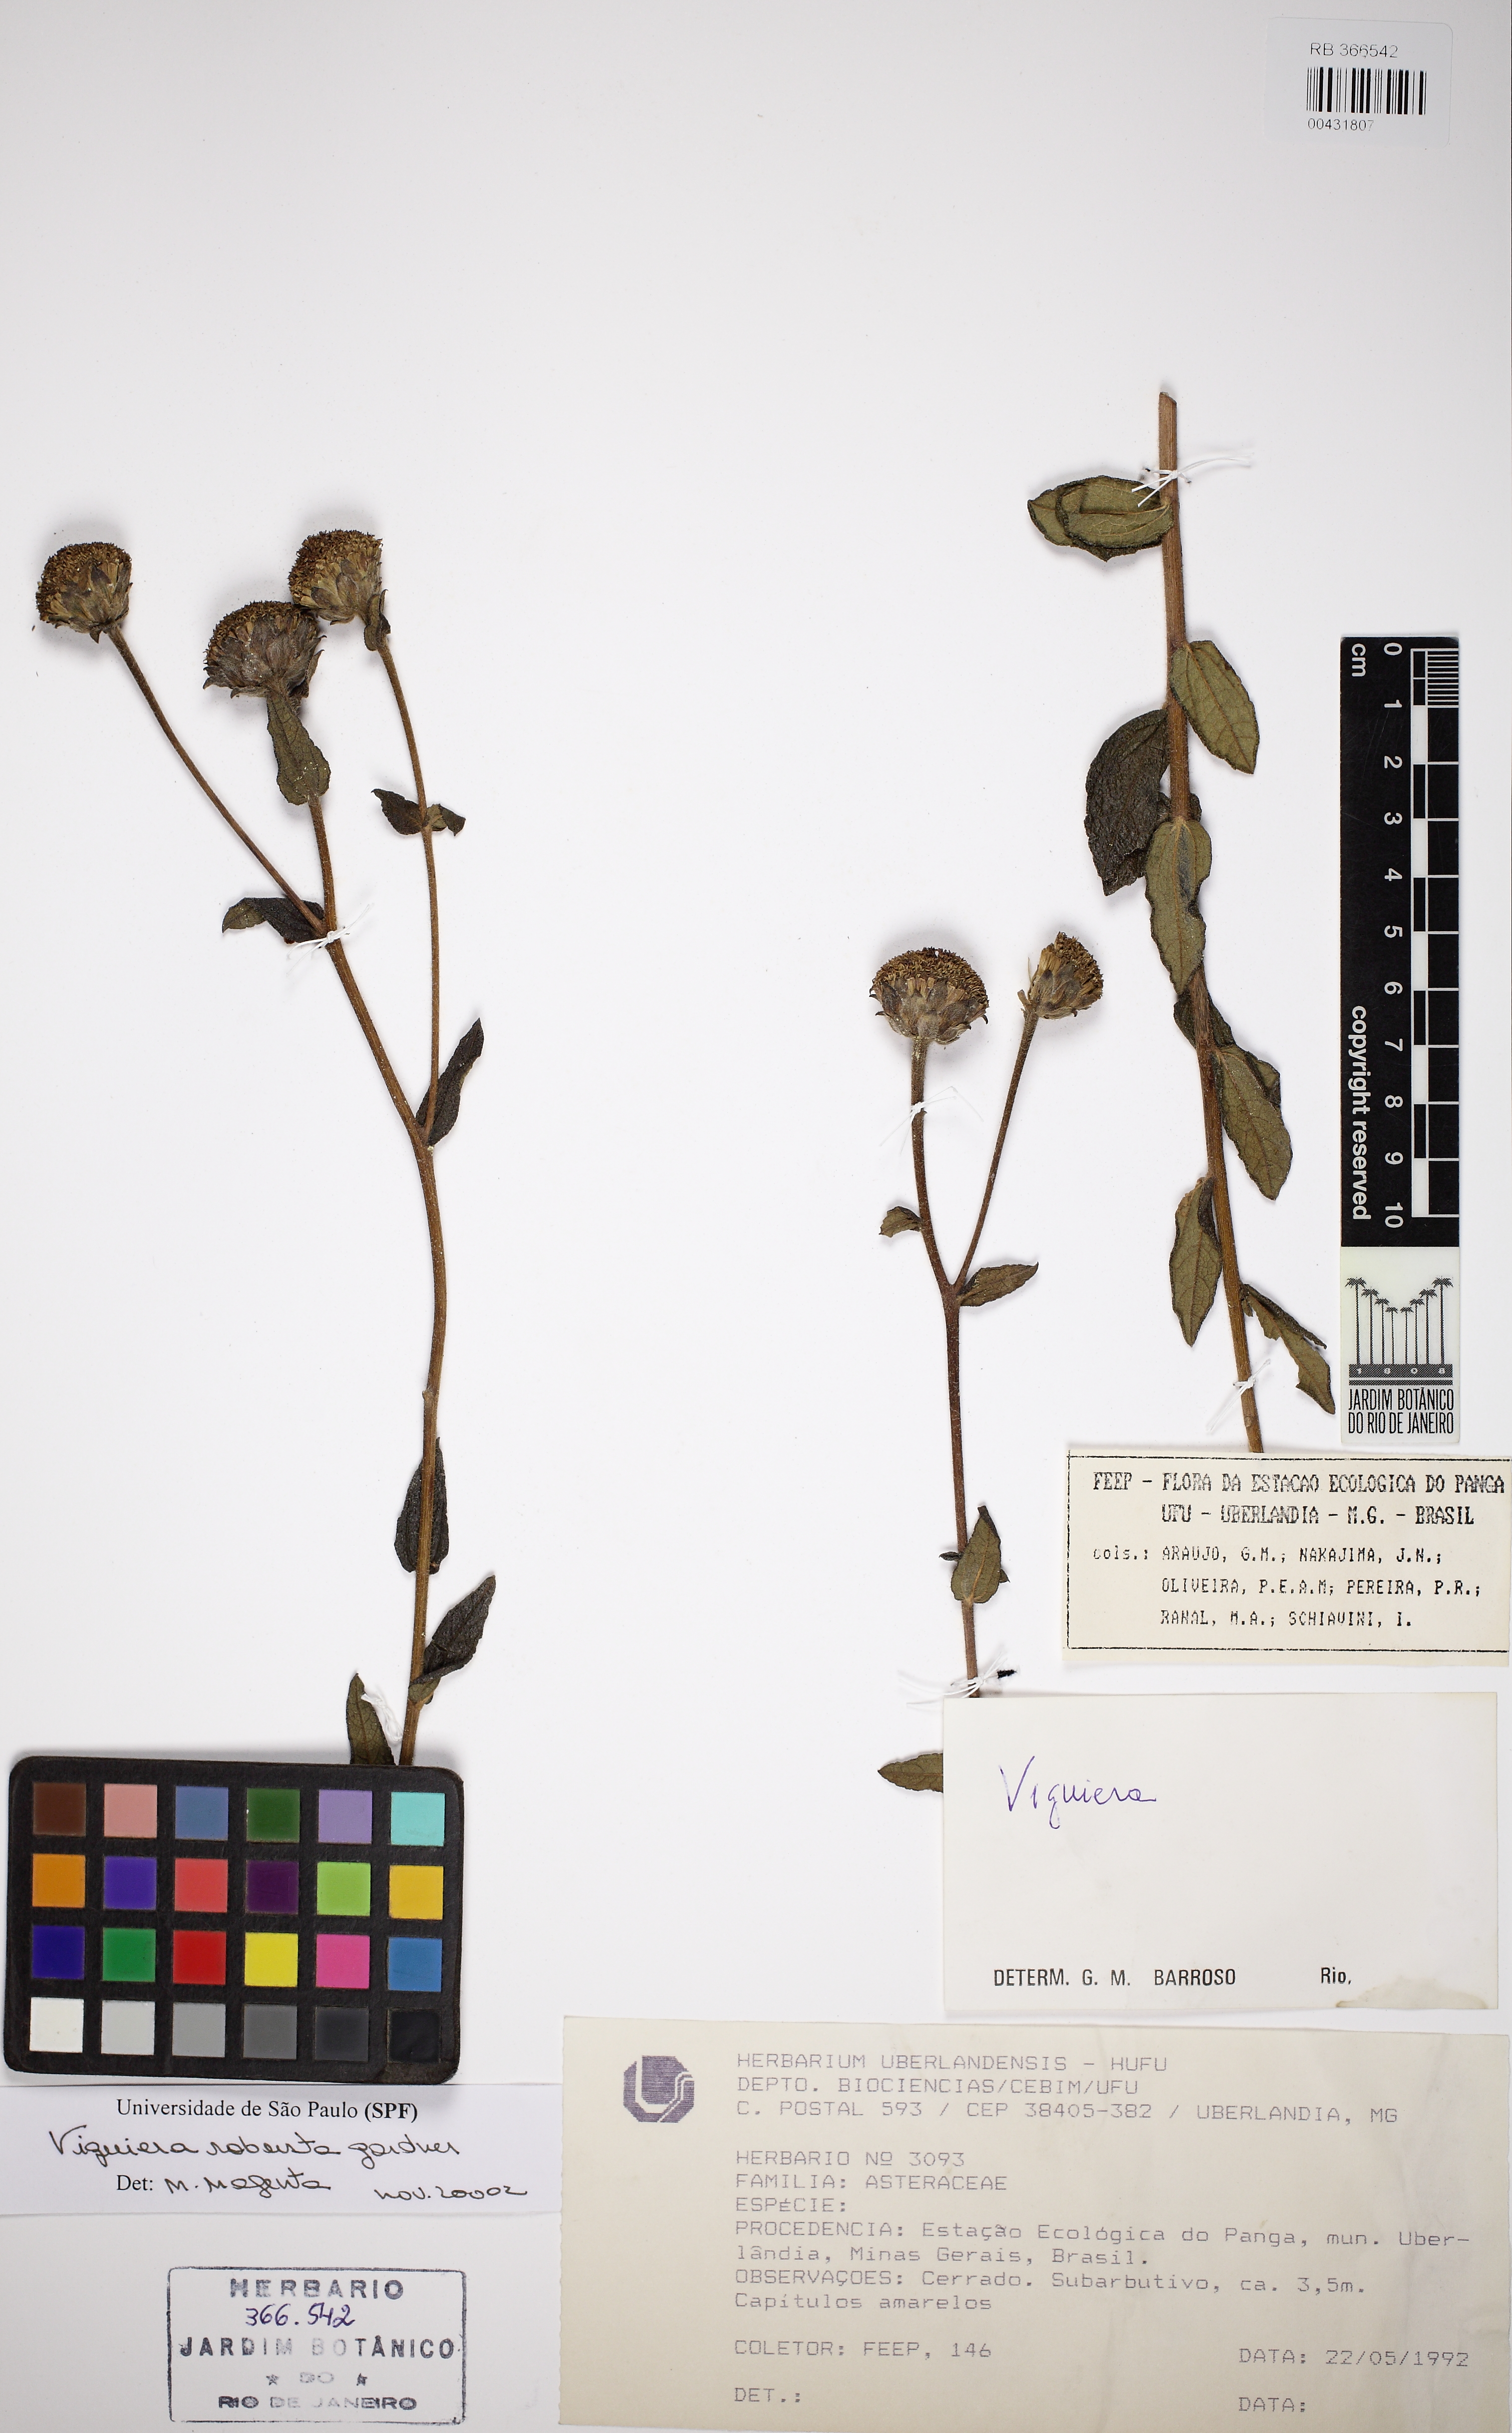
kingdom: Plantae
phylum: Tracheophyta
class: Magnoliopsida
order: Asterales
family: Asteraceae
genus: Aldama
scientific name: Aldama robusta
